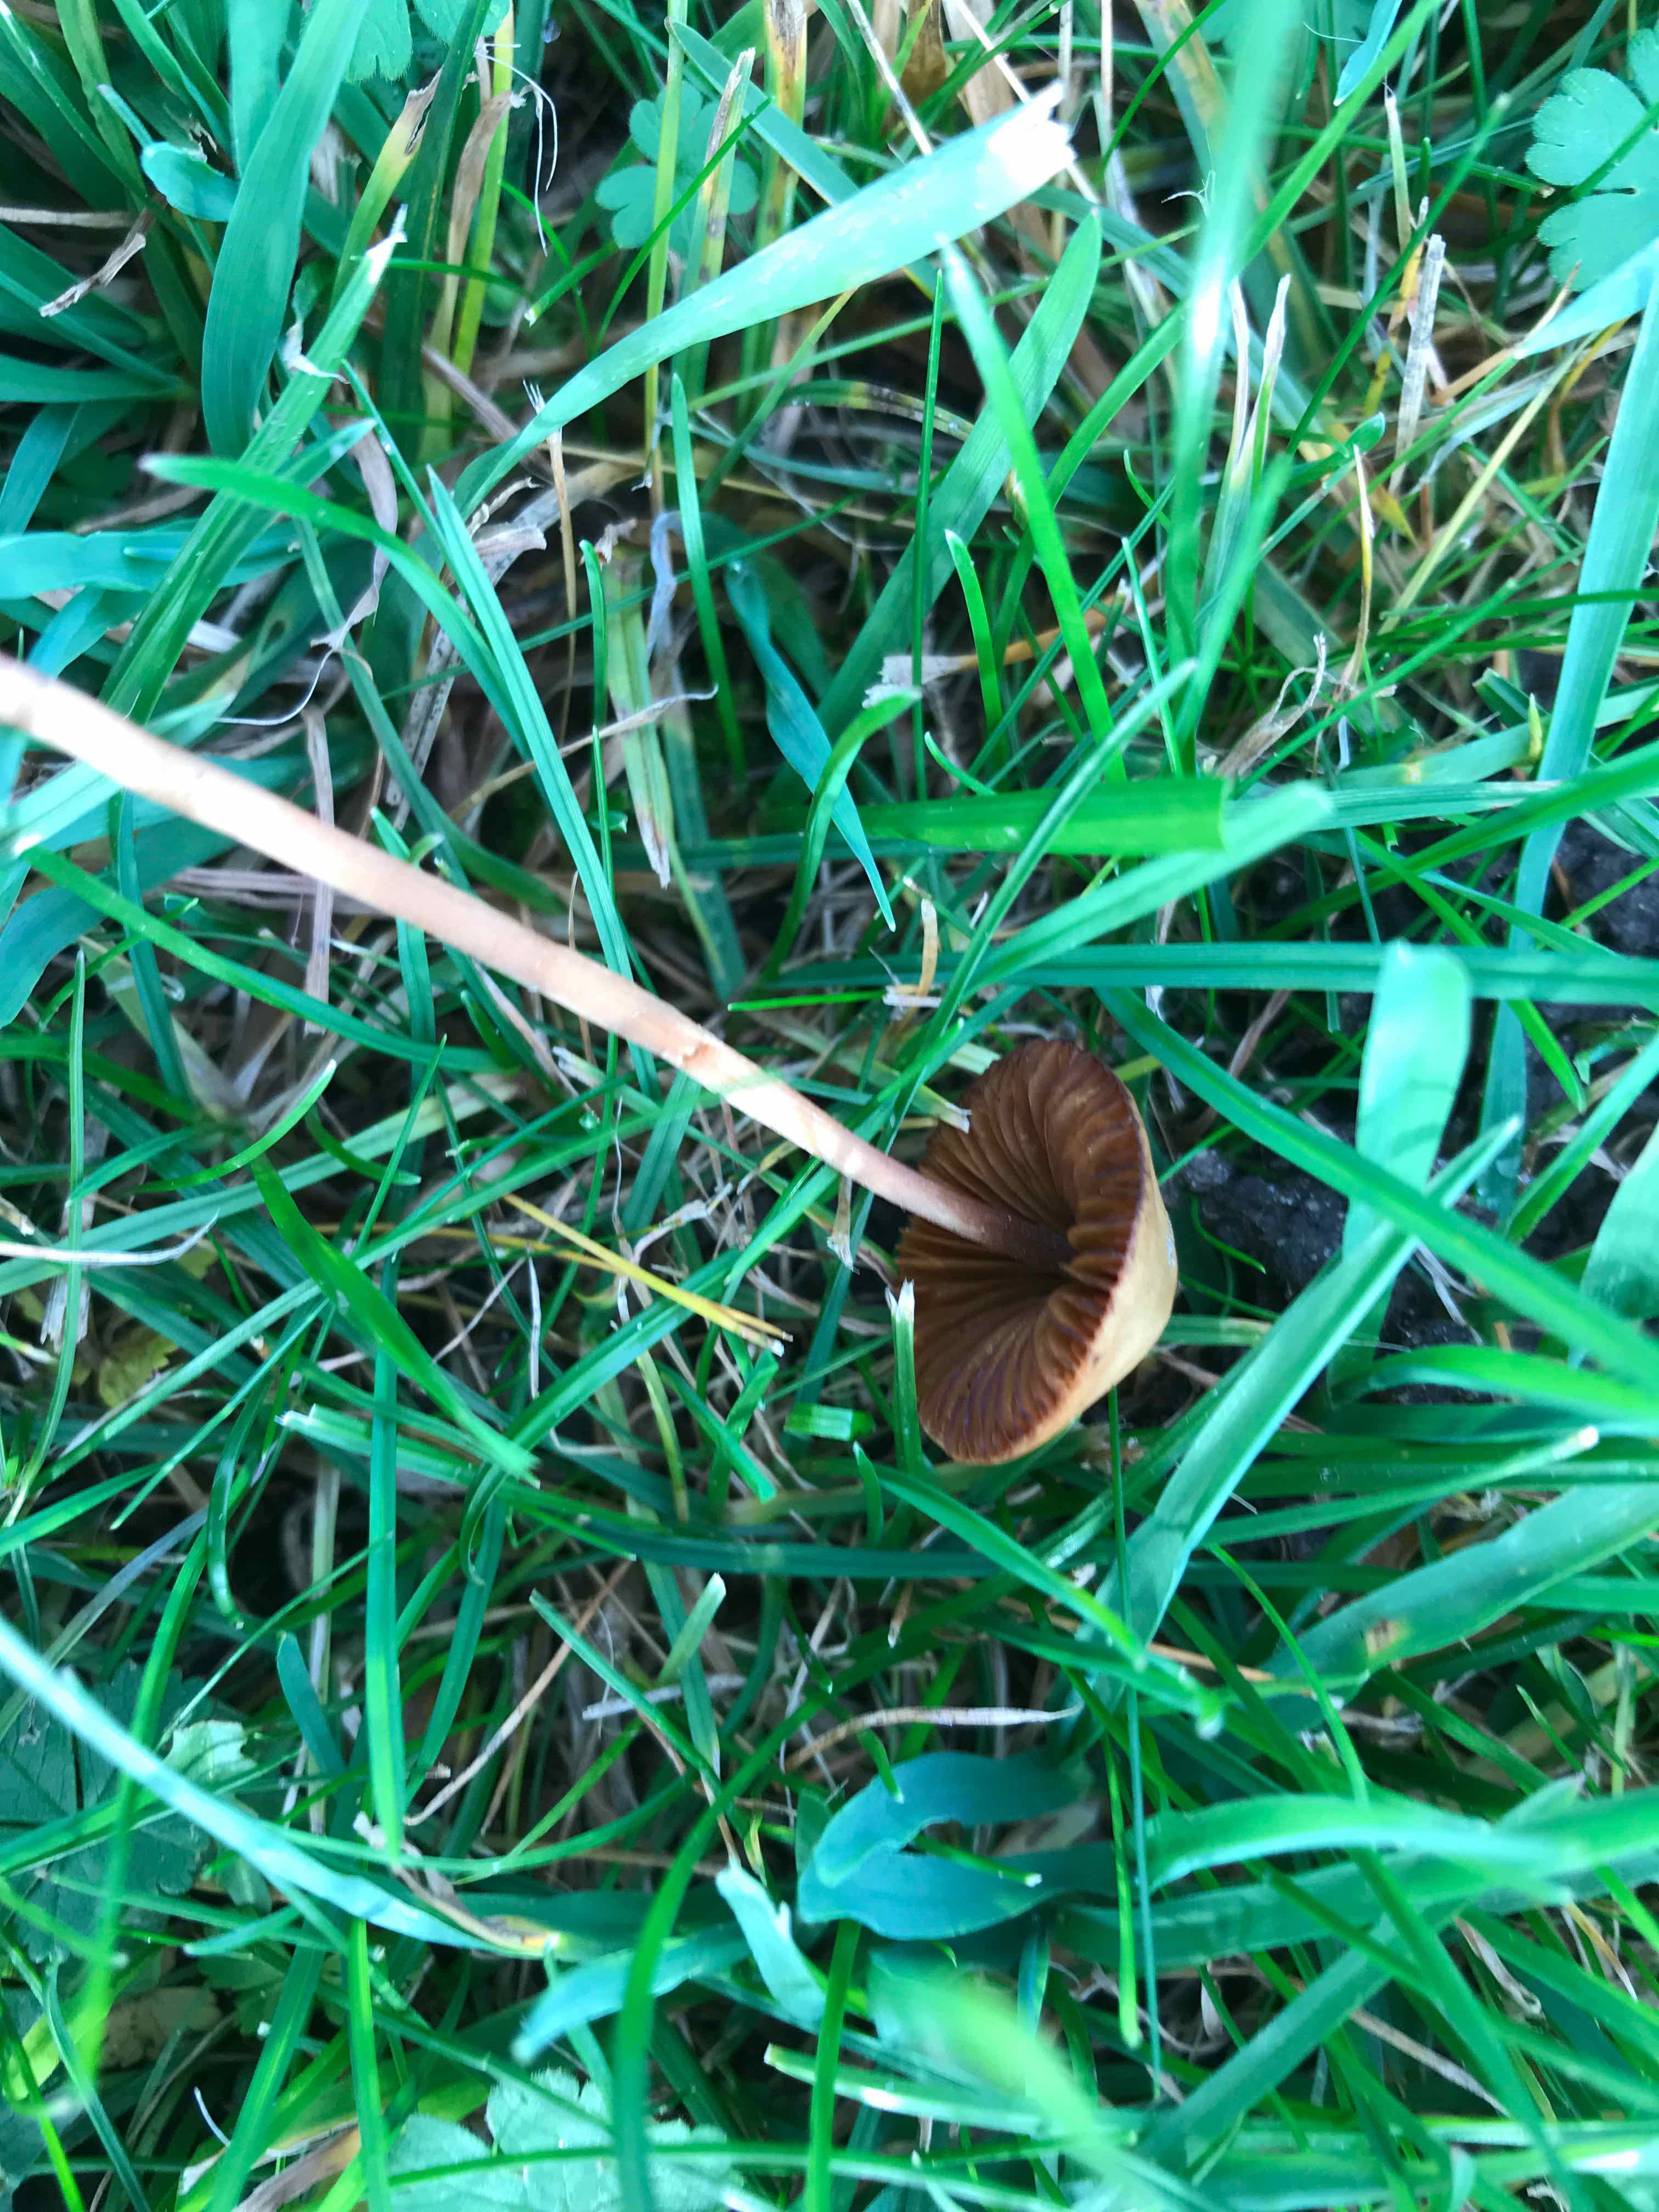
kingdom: Fungi
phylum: Basidiomycota
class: Agaricomycetes
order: Agaricales
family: Bolbitiaceae
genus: Conocybe
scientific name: Conocybe
